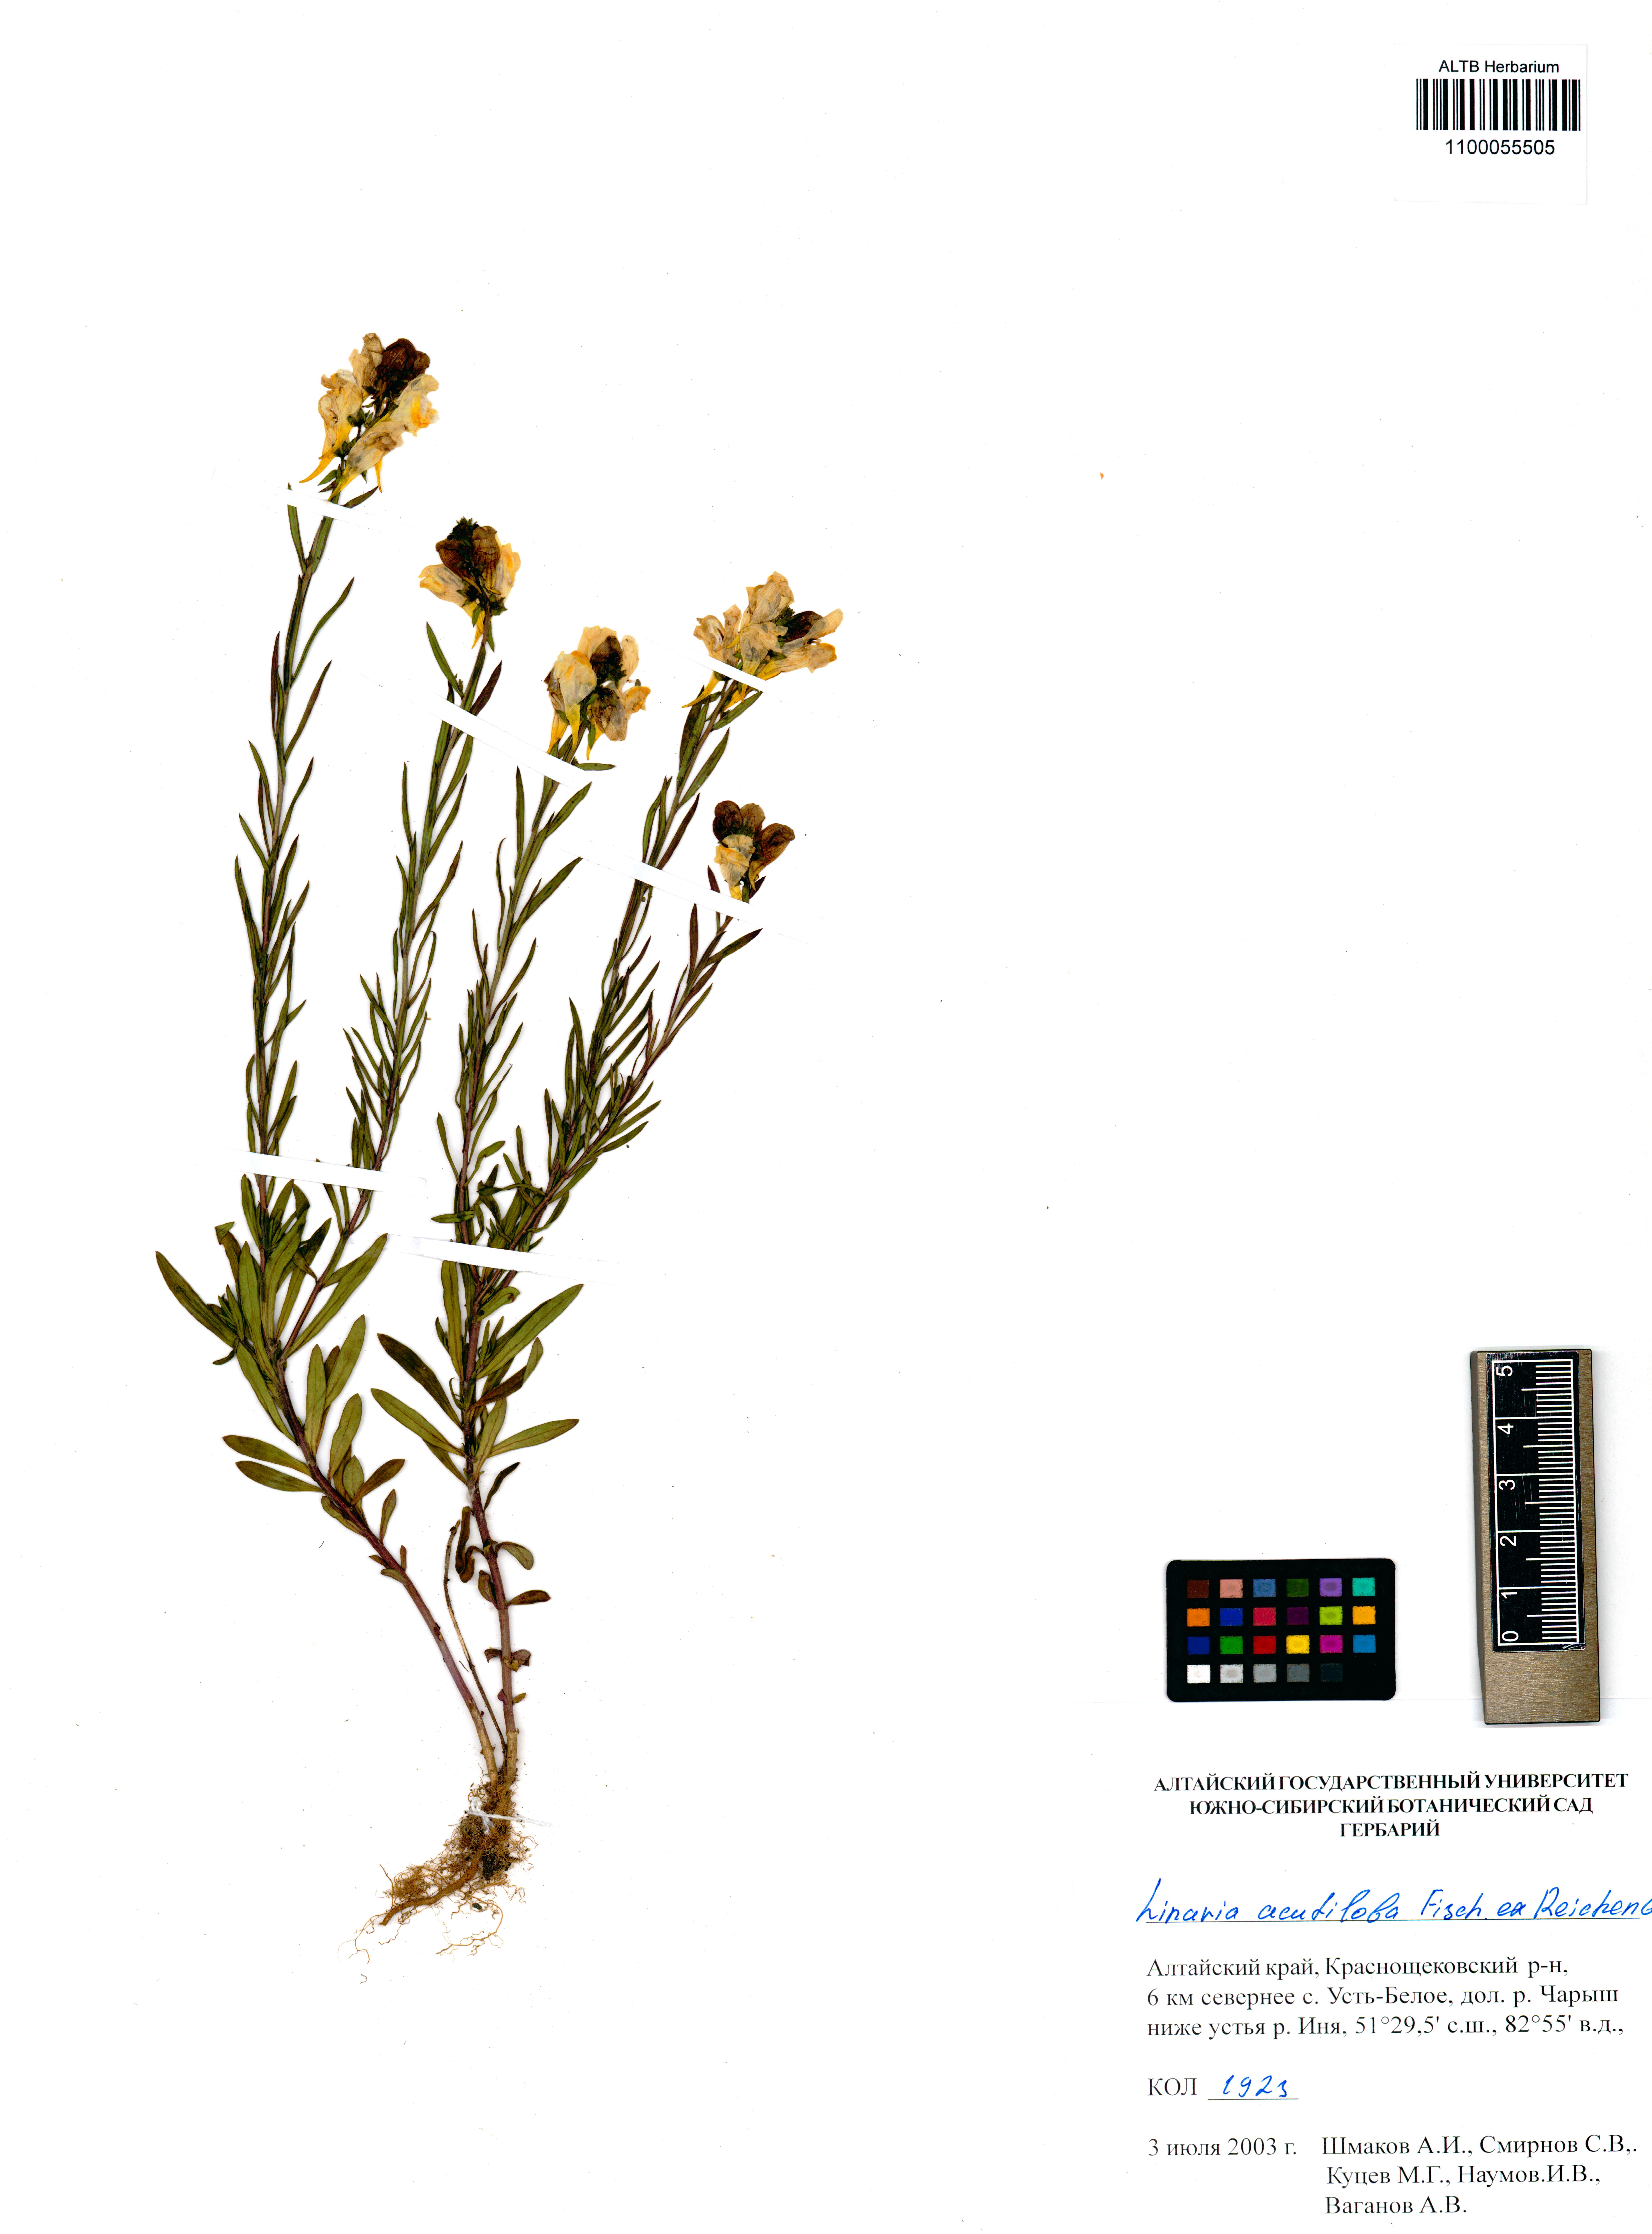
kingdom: Plantae
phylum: Tracheophyta
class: Magnoliopsida
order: Lamiales
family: Plantaginaceae
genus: Linaria
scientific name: Linaria acutiloba
